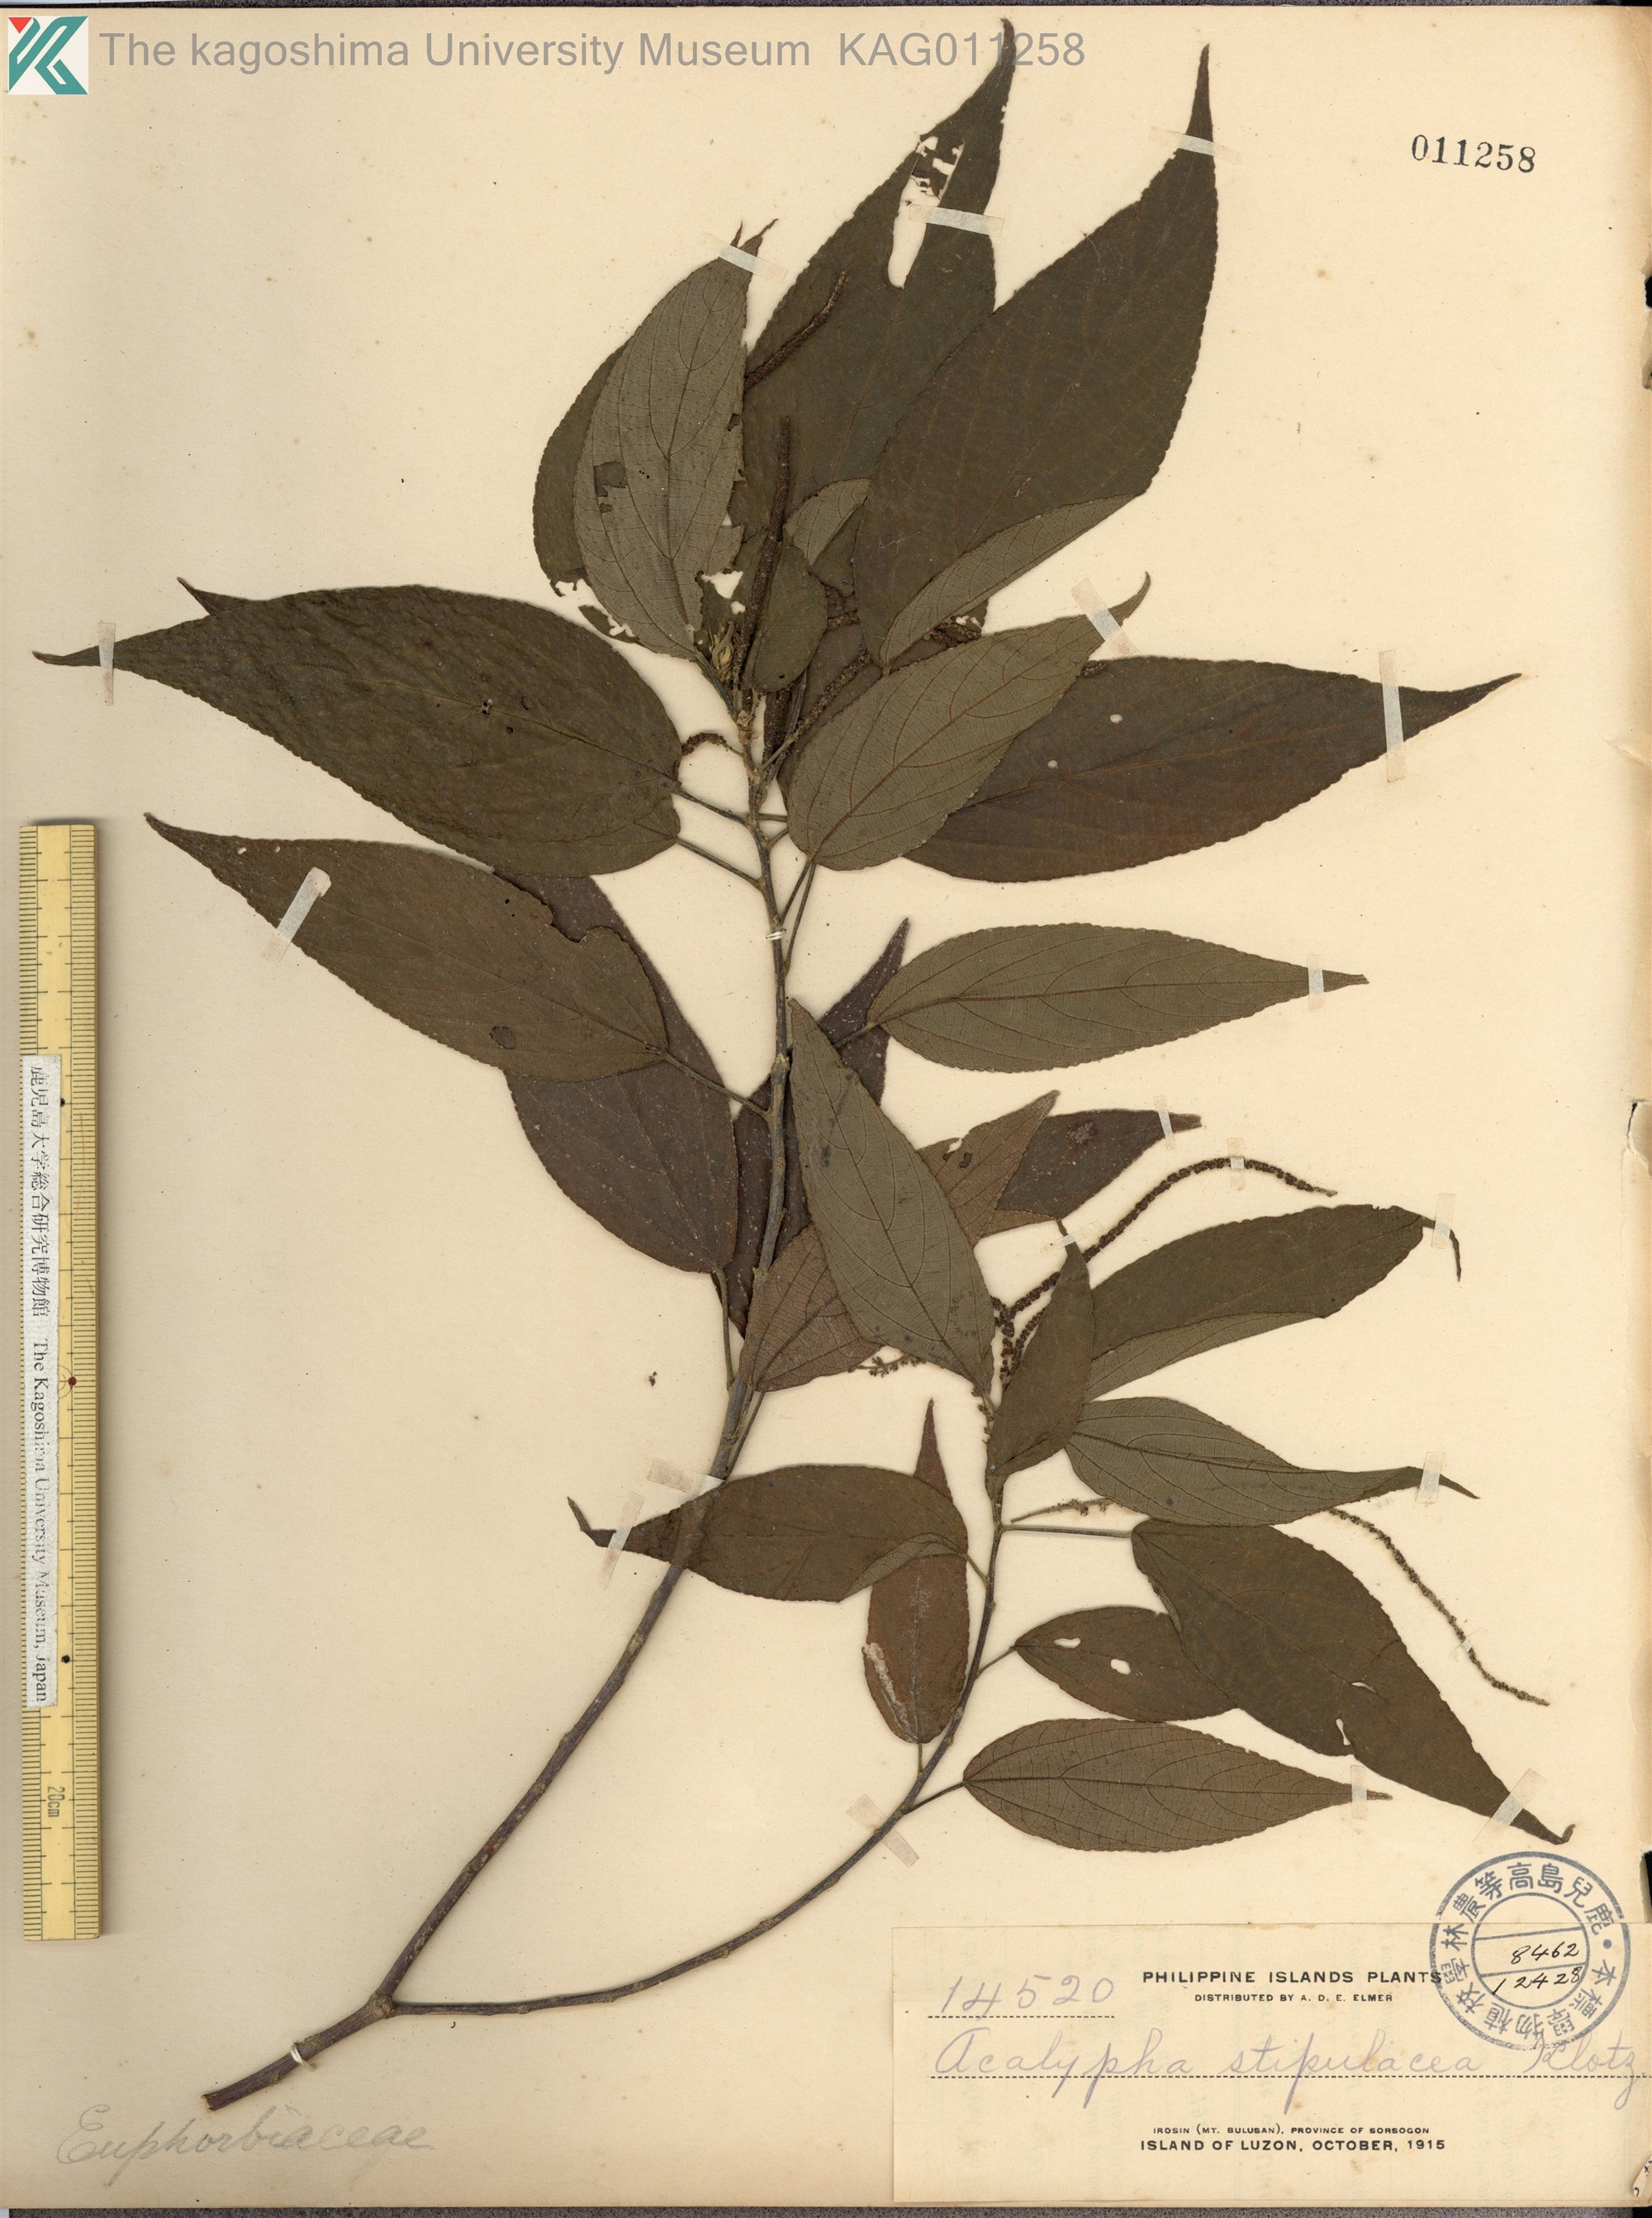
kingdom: Plantae
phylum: Tracheophyta
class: Magnoliopsida
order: Malpighiales
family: Euphorbiaceae
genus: Acalypha
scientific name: Acalypha insulana
